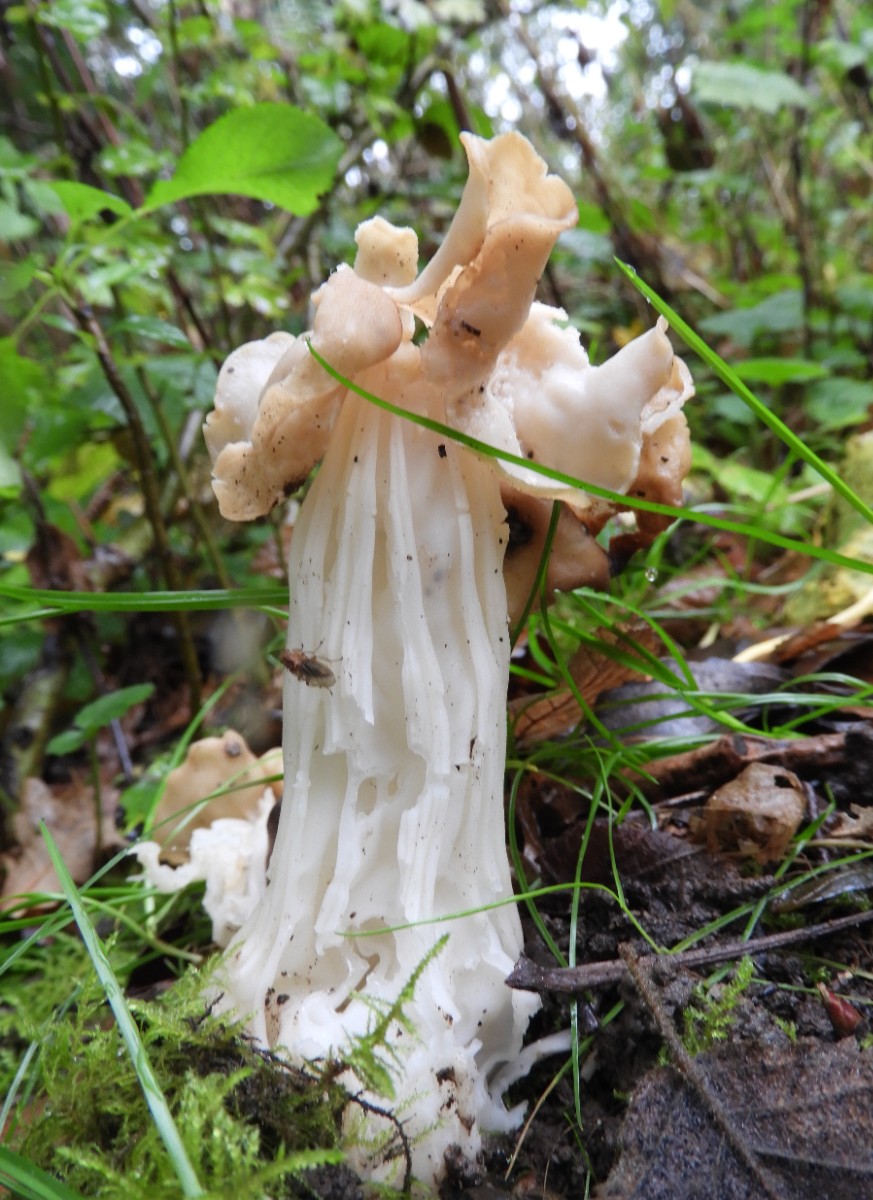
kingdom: Fungi
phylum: Ascomycota
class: Pezizomycetes
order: Pezizales
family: Helvellaceae
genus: Helvella
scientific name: Helvella crispa
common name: kruset foldhat
